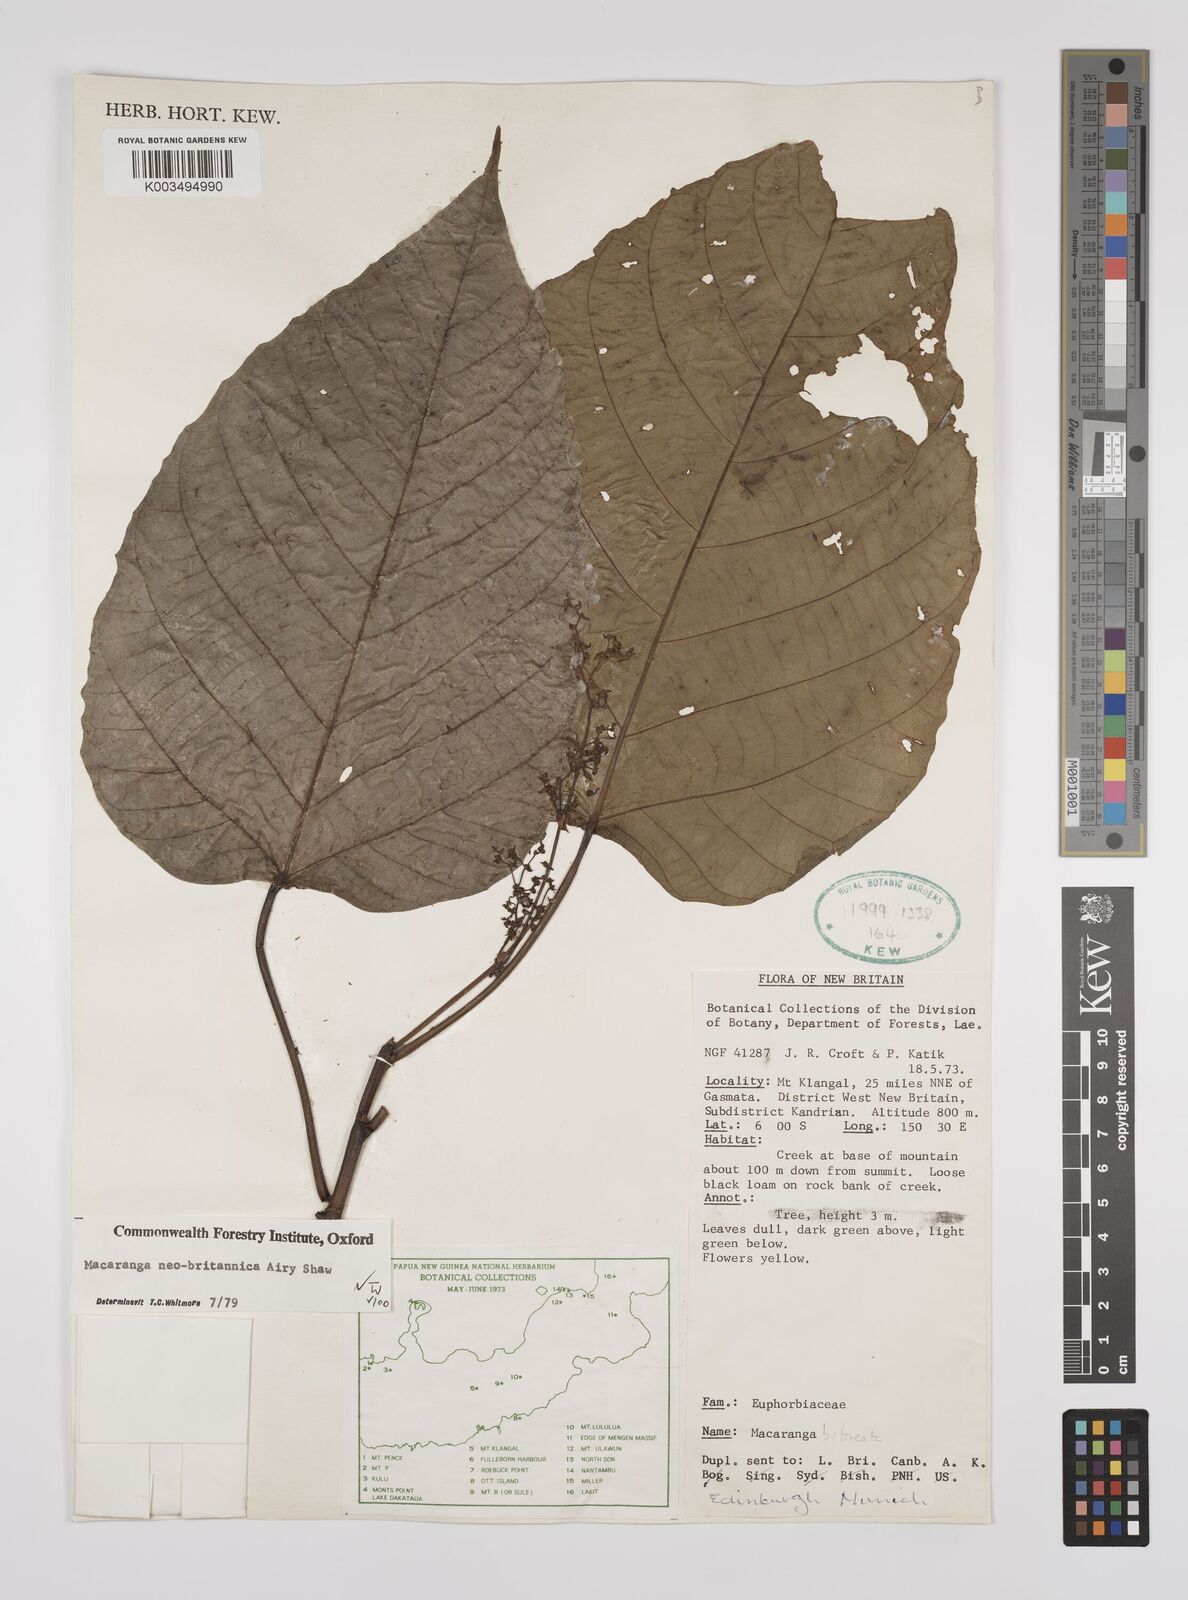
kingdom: Plantae
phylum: Tracheophyta
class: Magnoliopsida
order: Malpighiales
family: Euphorbiaceae
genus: Macaranga
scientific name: Macaranga neobritannica
